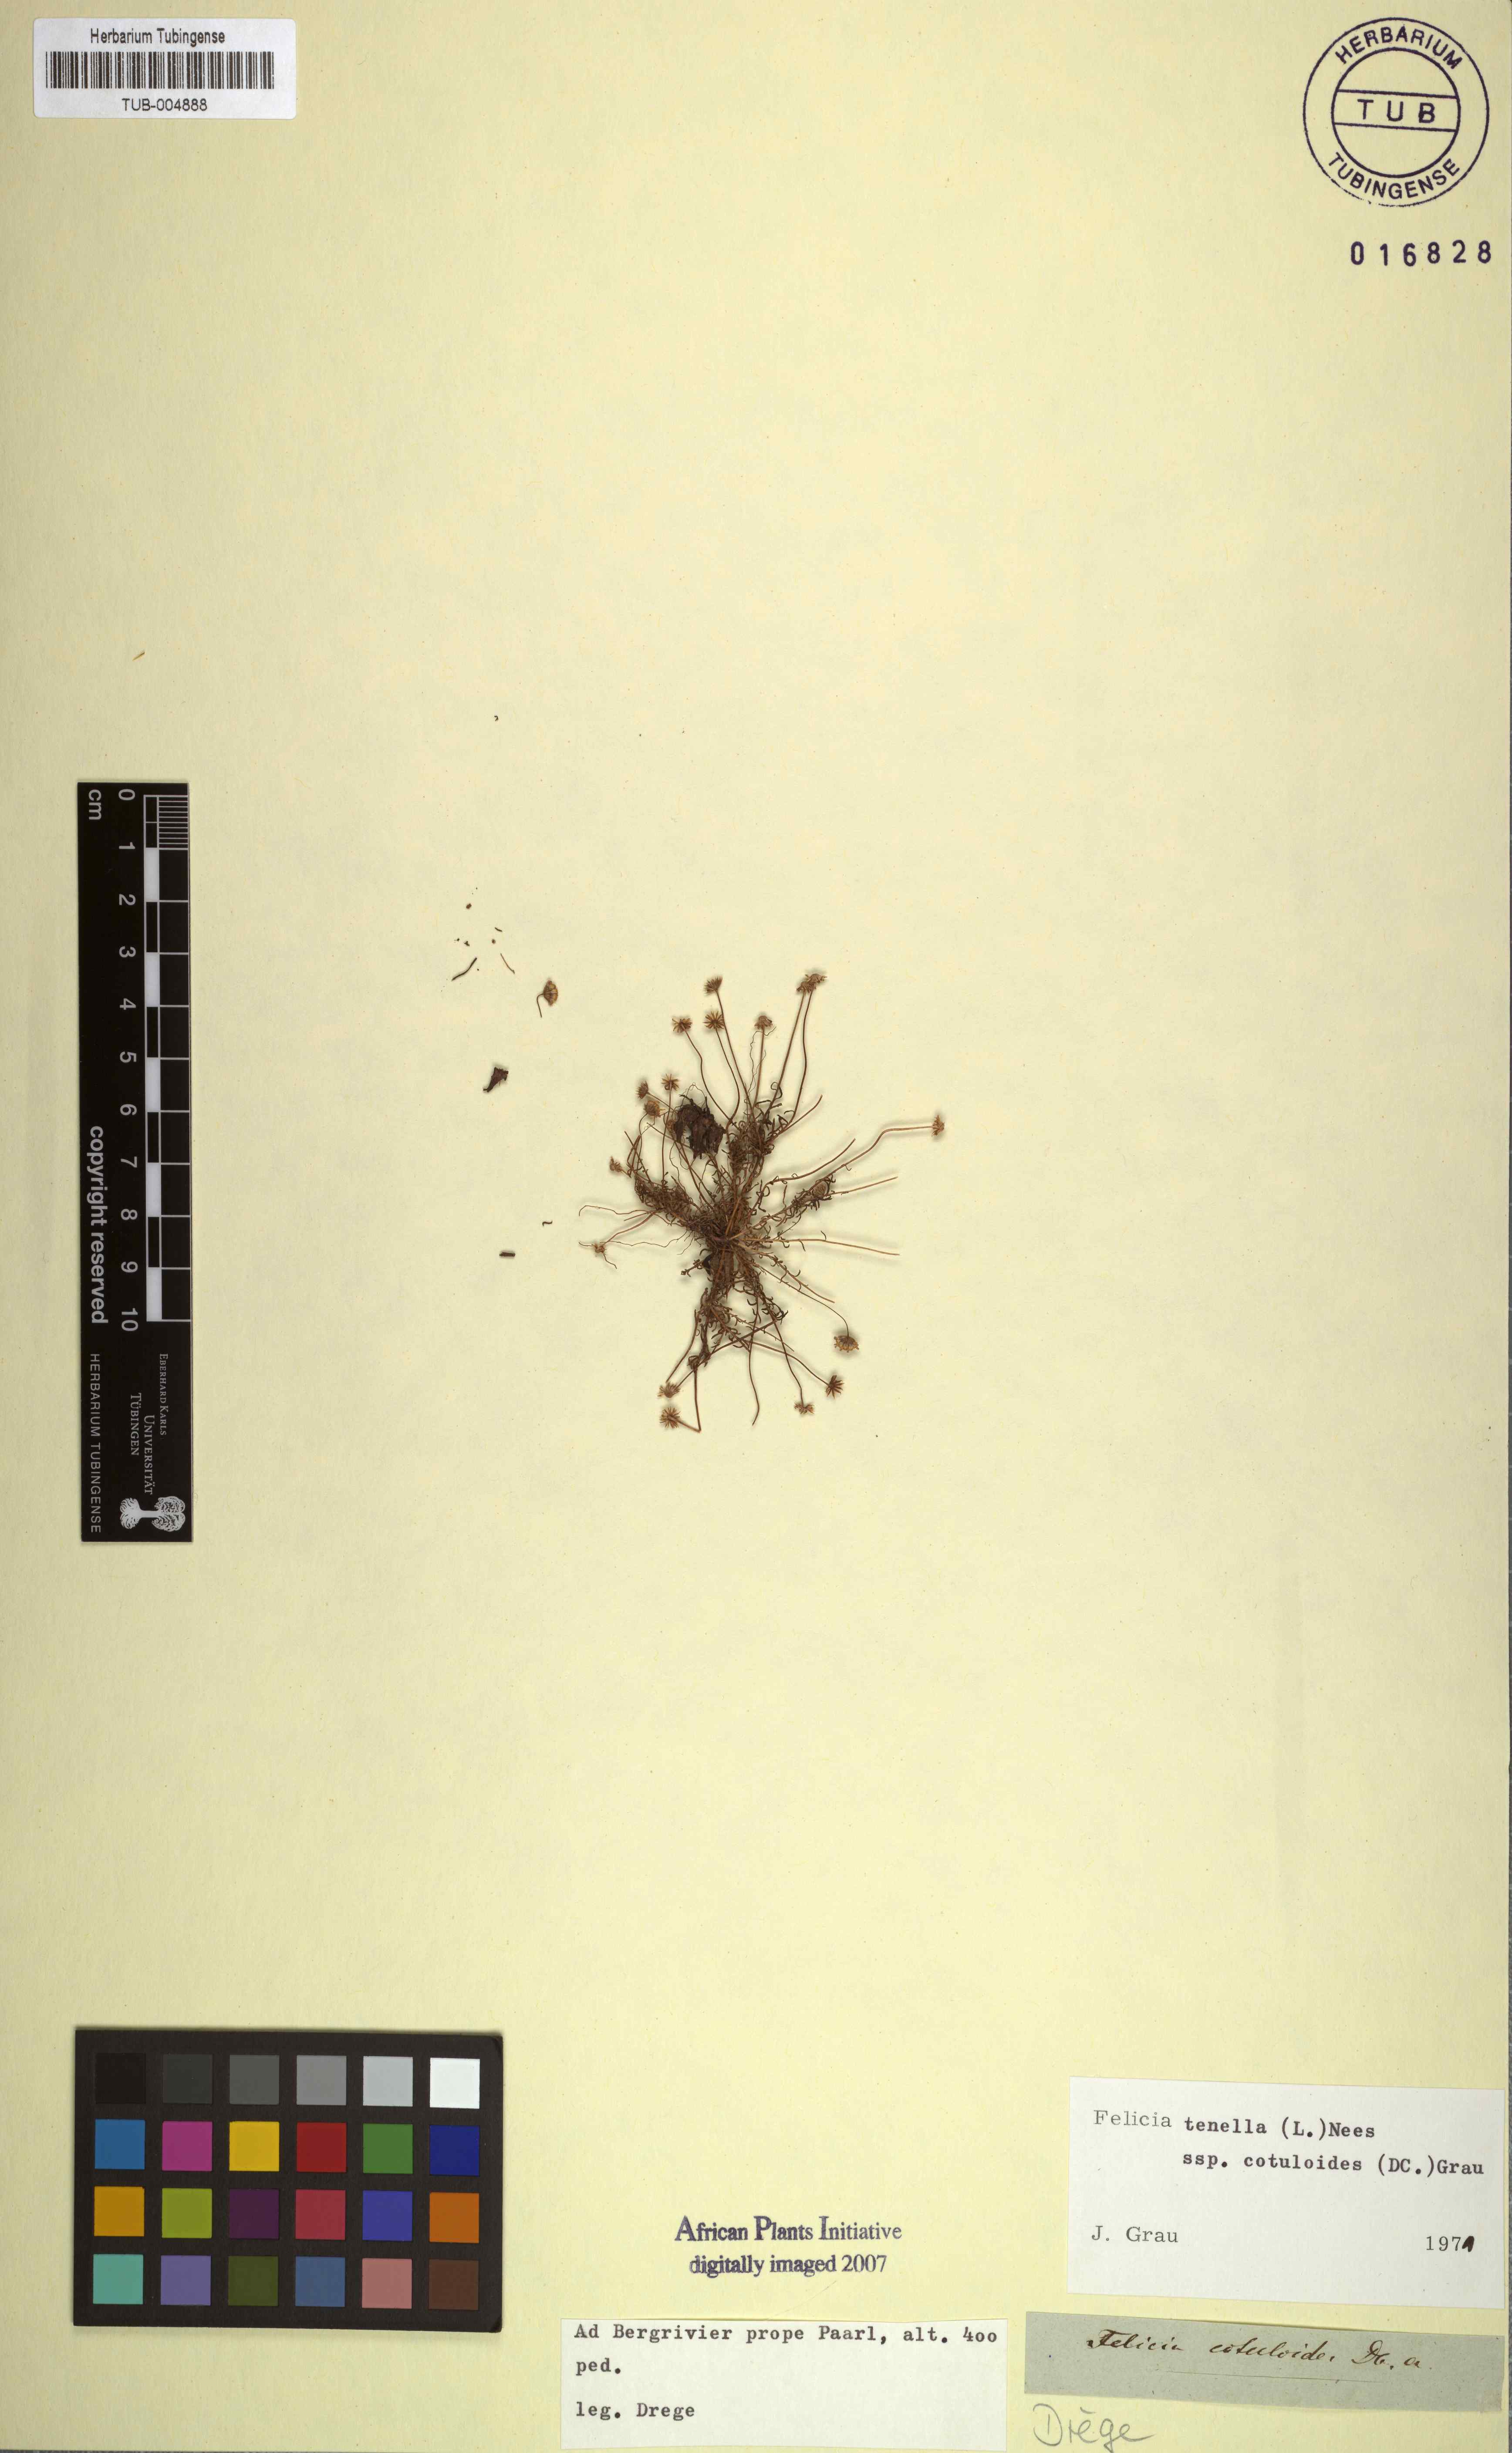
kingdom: Plantae
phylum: Tracheophyta
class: Magnoliopsida
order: Asterales
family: Asteraceae
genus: Felicia
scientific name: Felicia tenella
